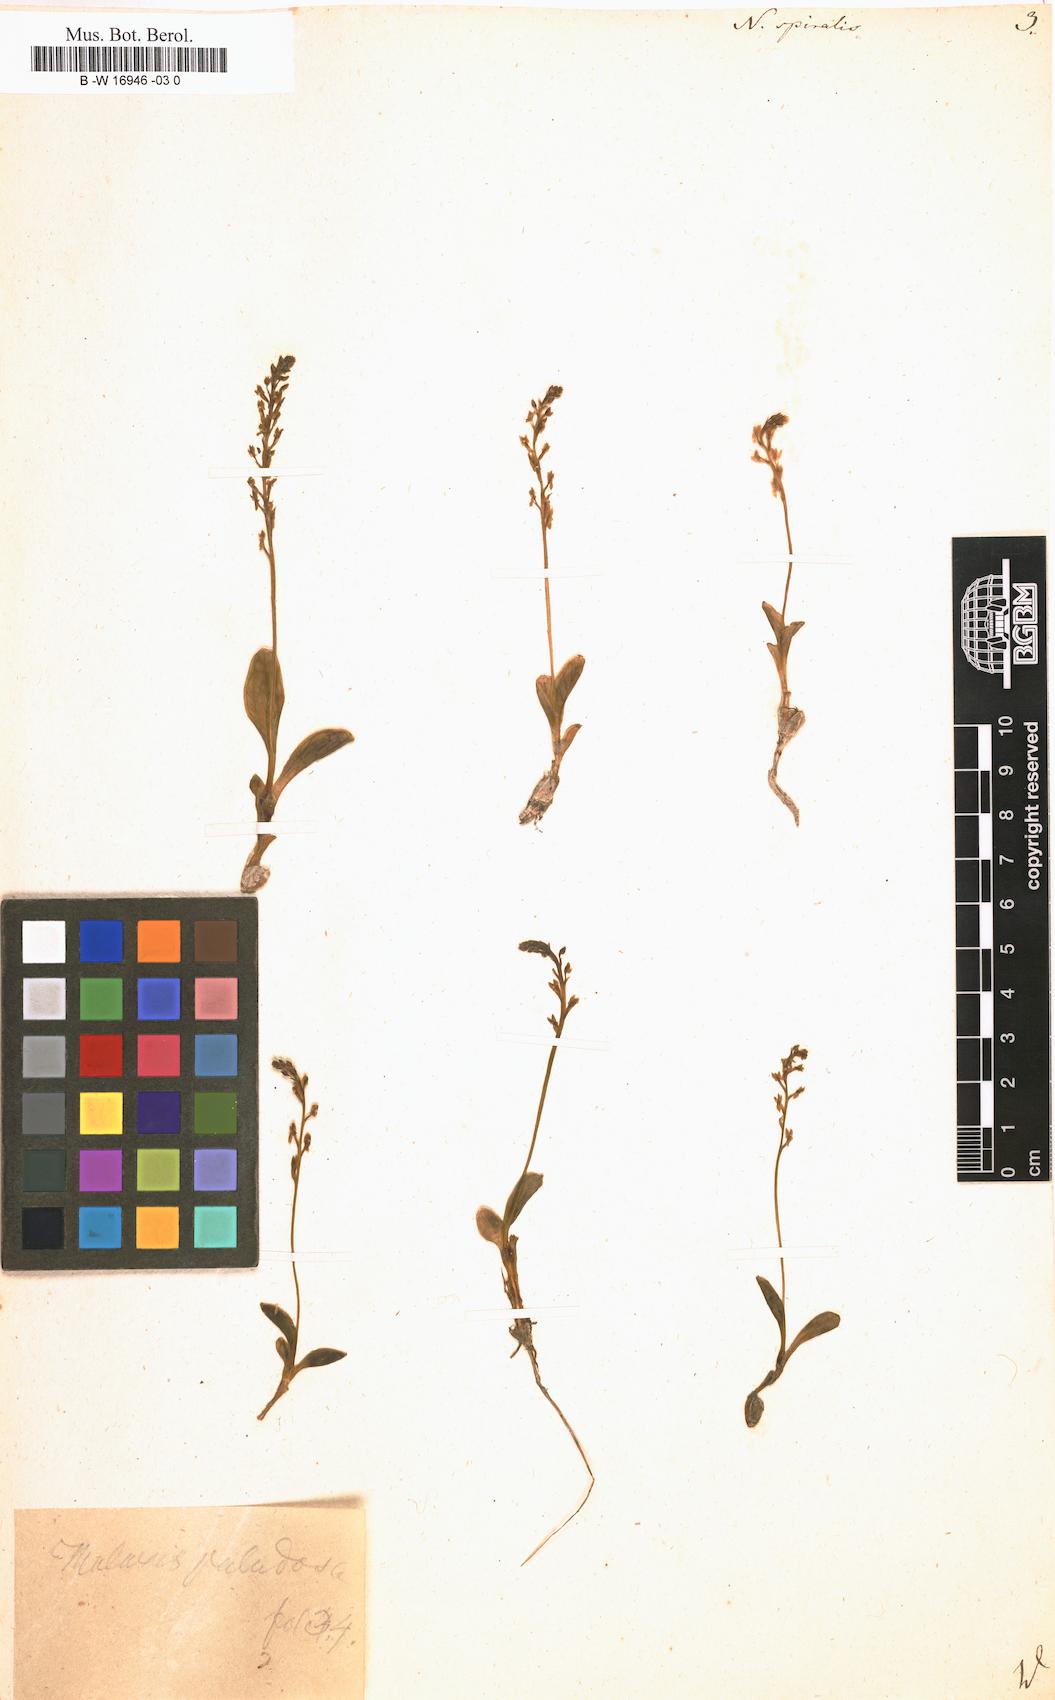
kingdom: Plantae
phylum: Tracheophyta
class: Liliopsida
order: Asparagales
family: Orchidaceae
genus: Spiranthes
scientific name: Spiranthes spiralis
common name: Autumn lady's-tresses
